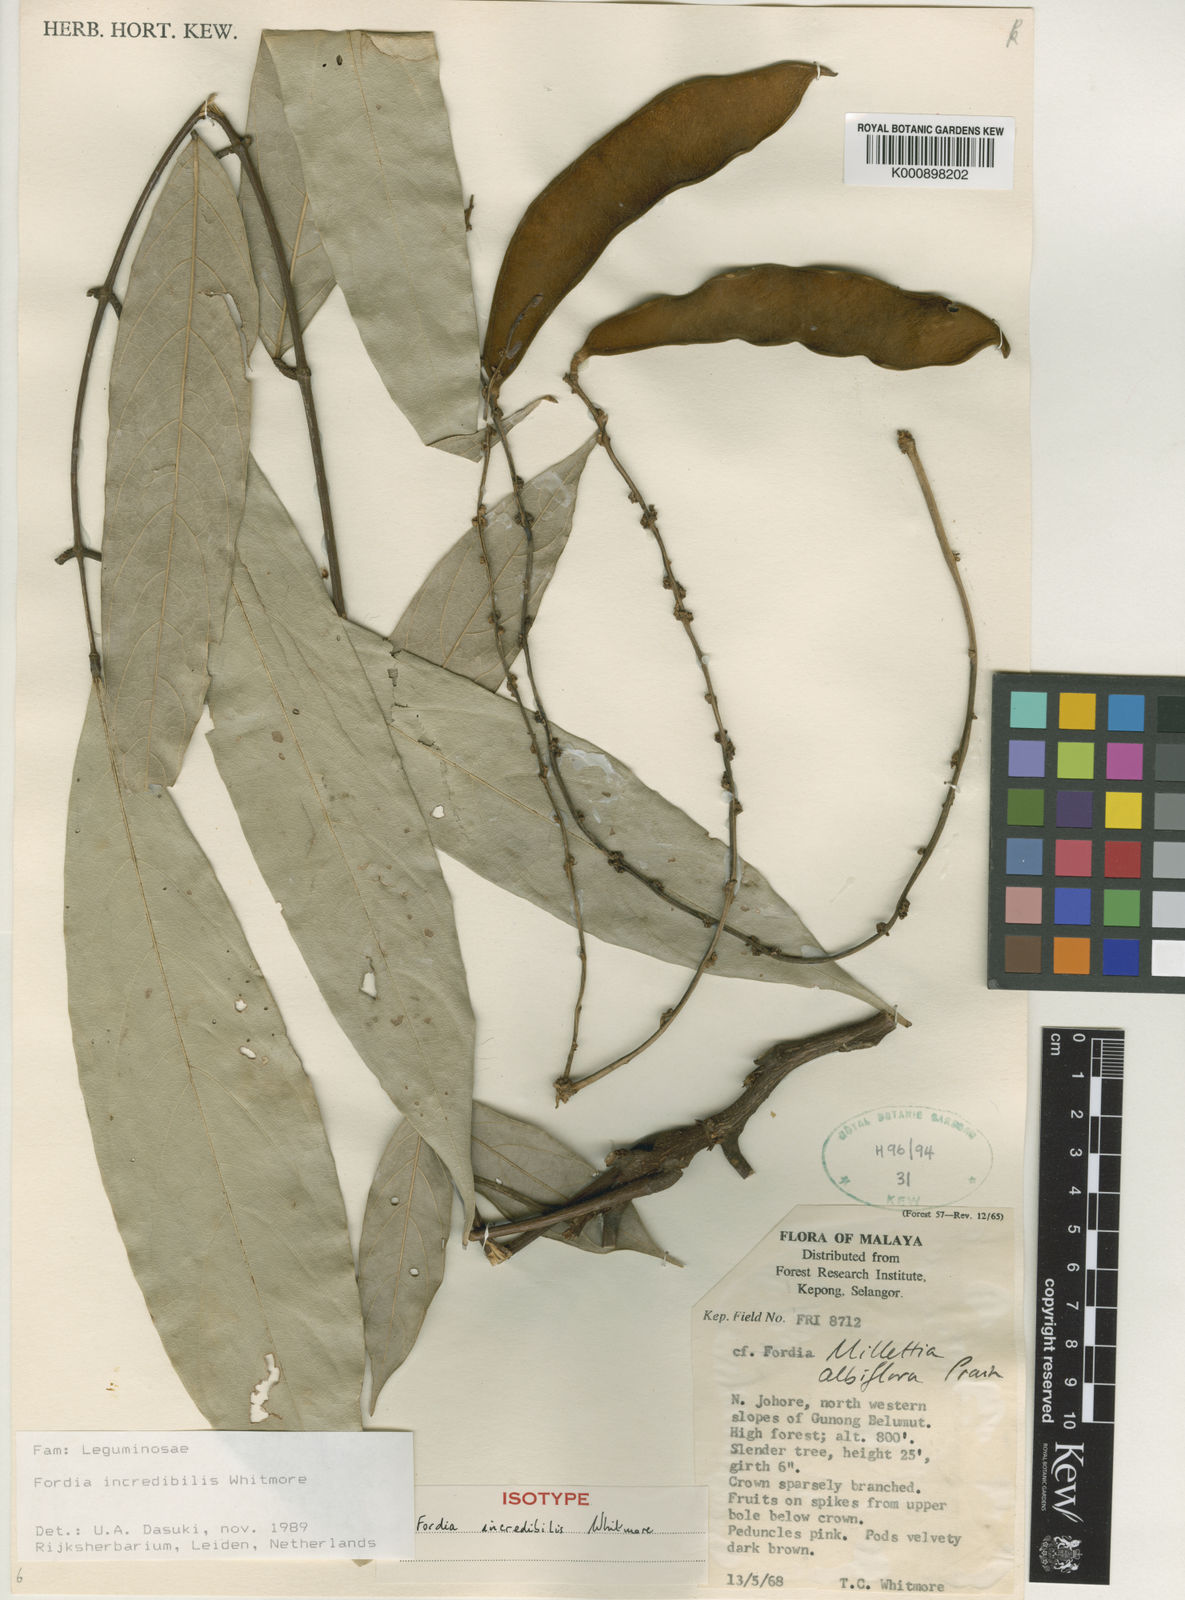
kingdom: Plantae
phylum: Tracheophyta
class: Magnoliopsida
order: Fabales
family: Fabaceae
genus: Imbralyx
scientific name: Imbralyx incredibilis
